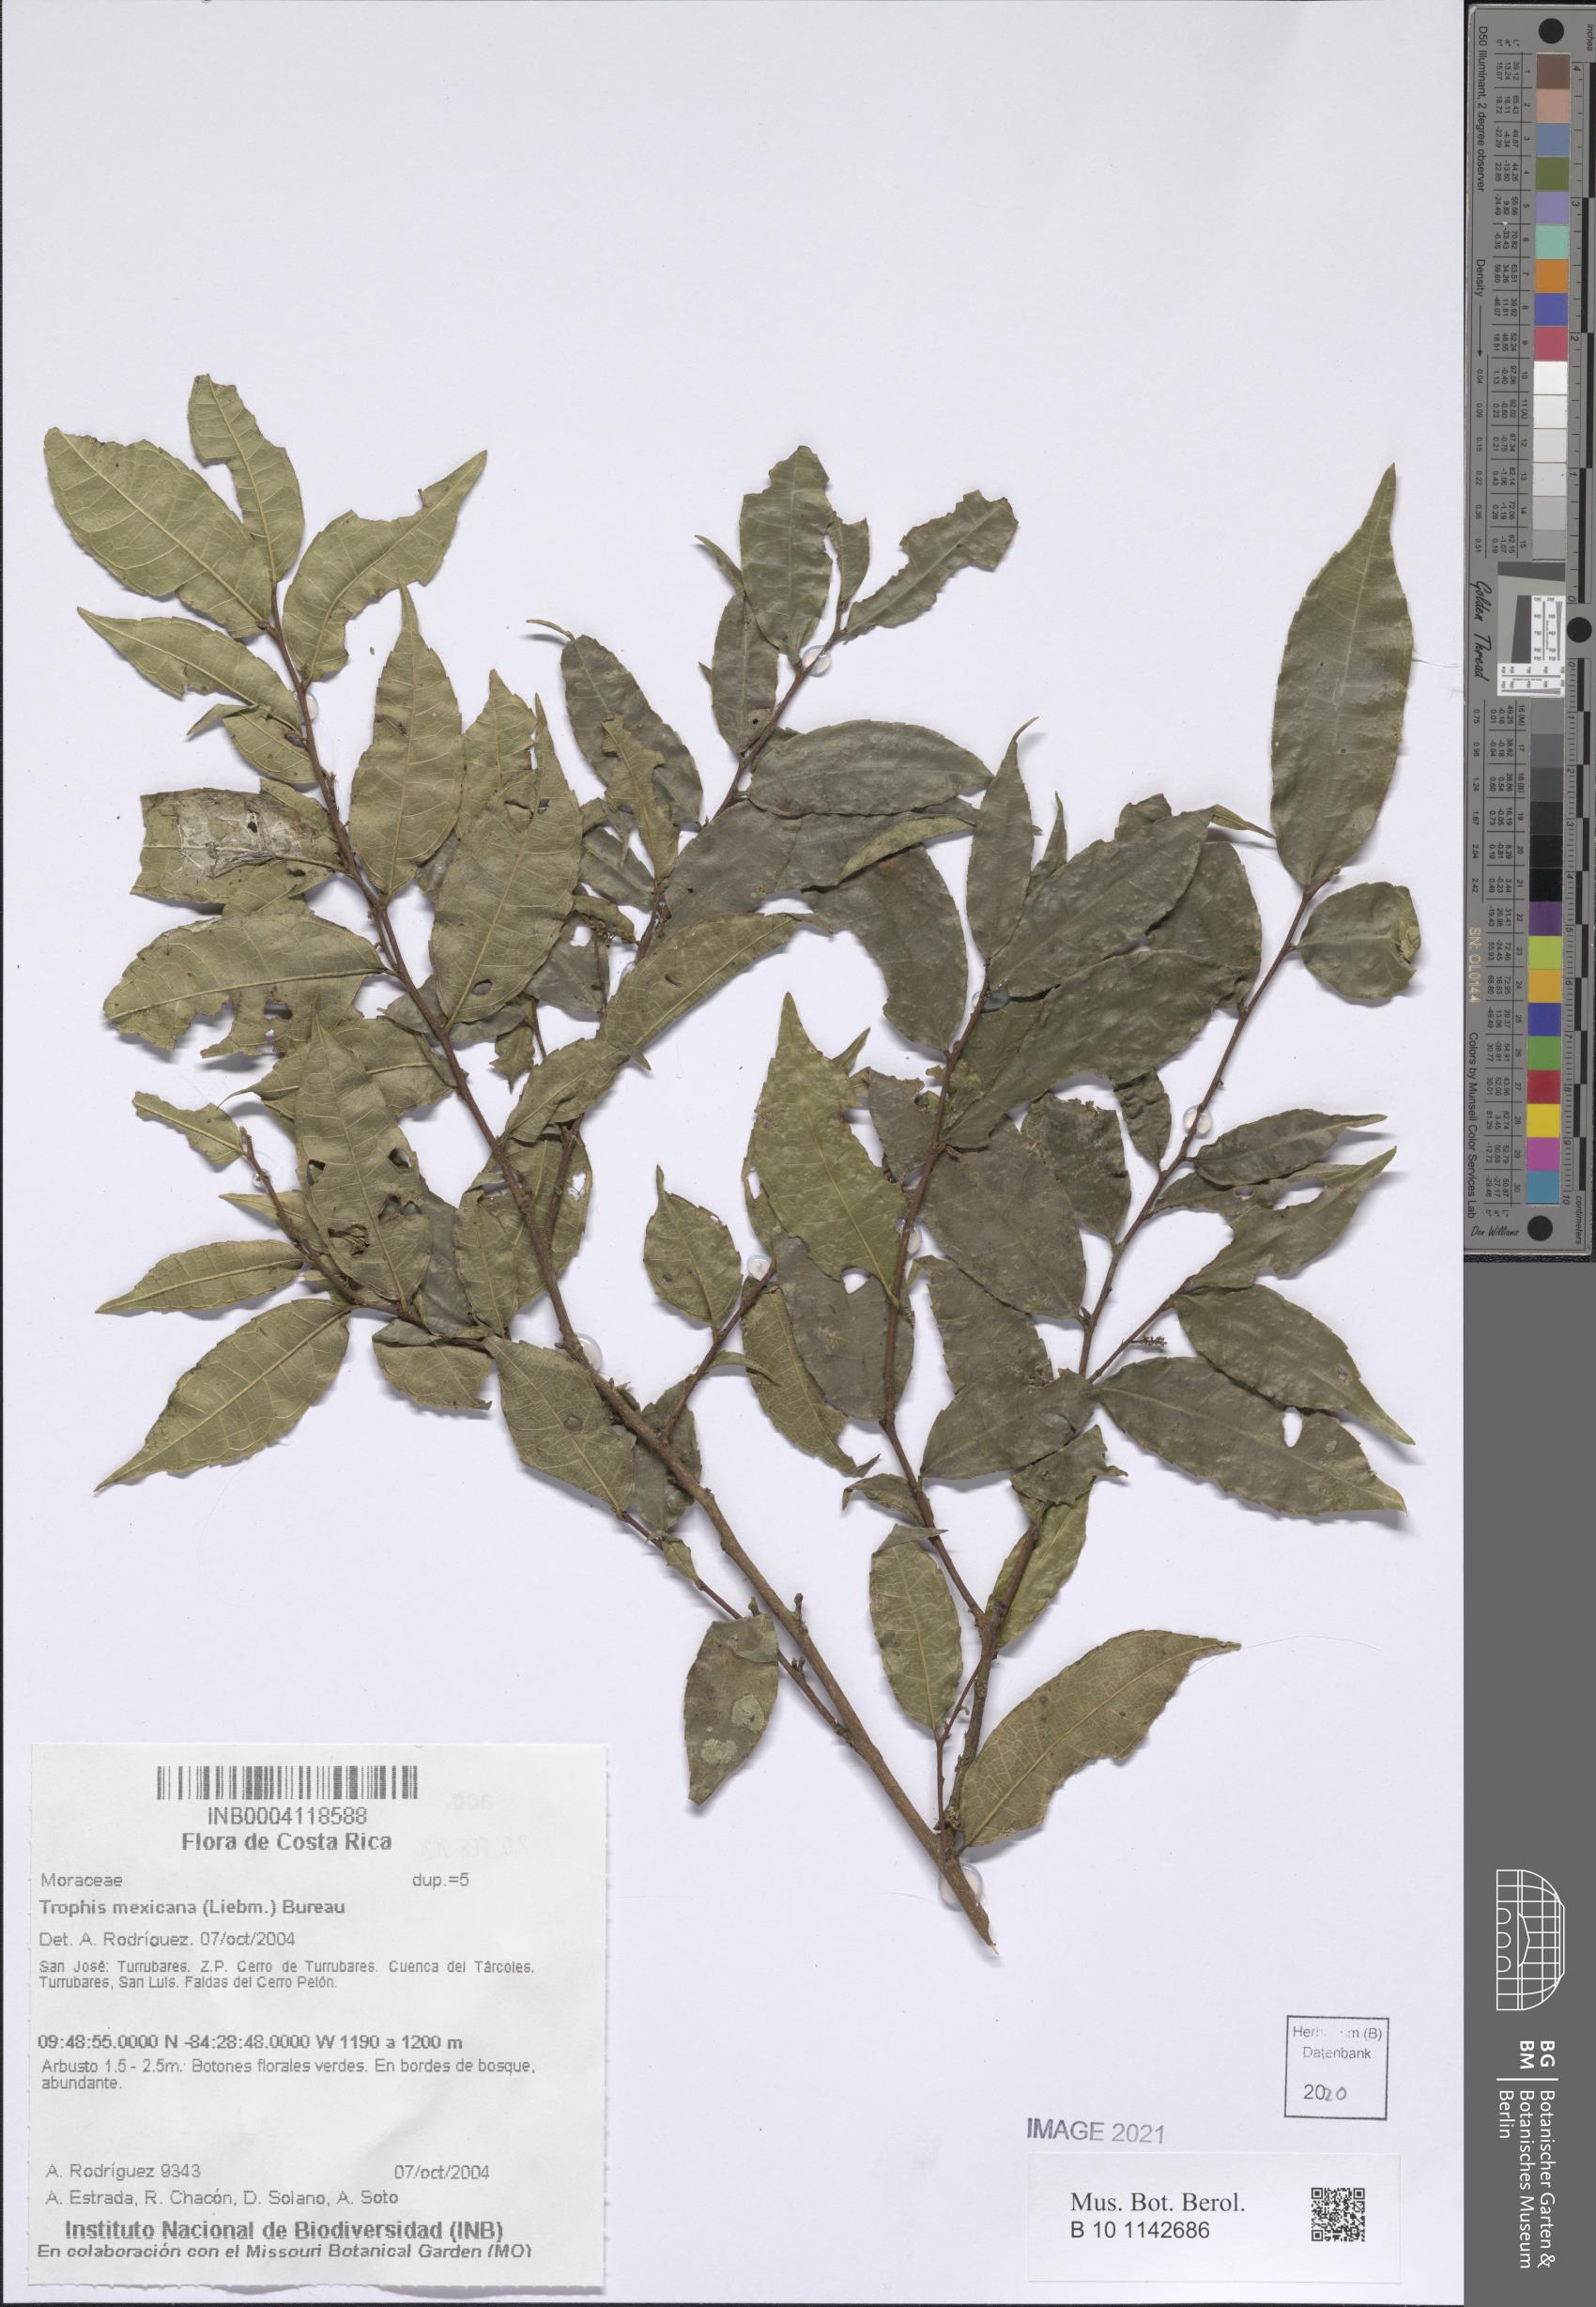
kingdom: Plantae
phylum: Tracheophyta
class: Magnoliopsida
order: Rosales
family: Moraceae
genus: Trophis
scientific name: Trophis mexicana
